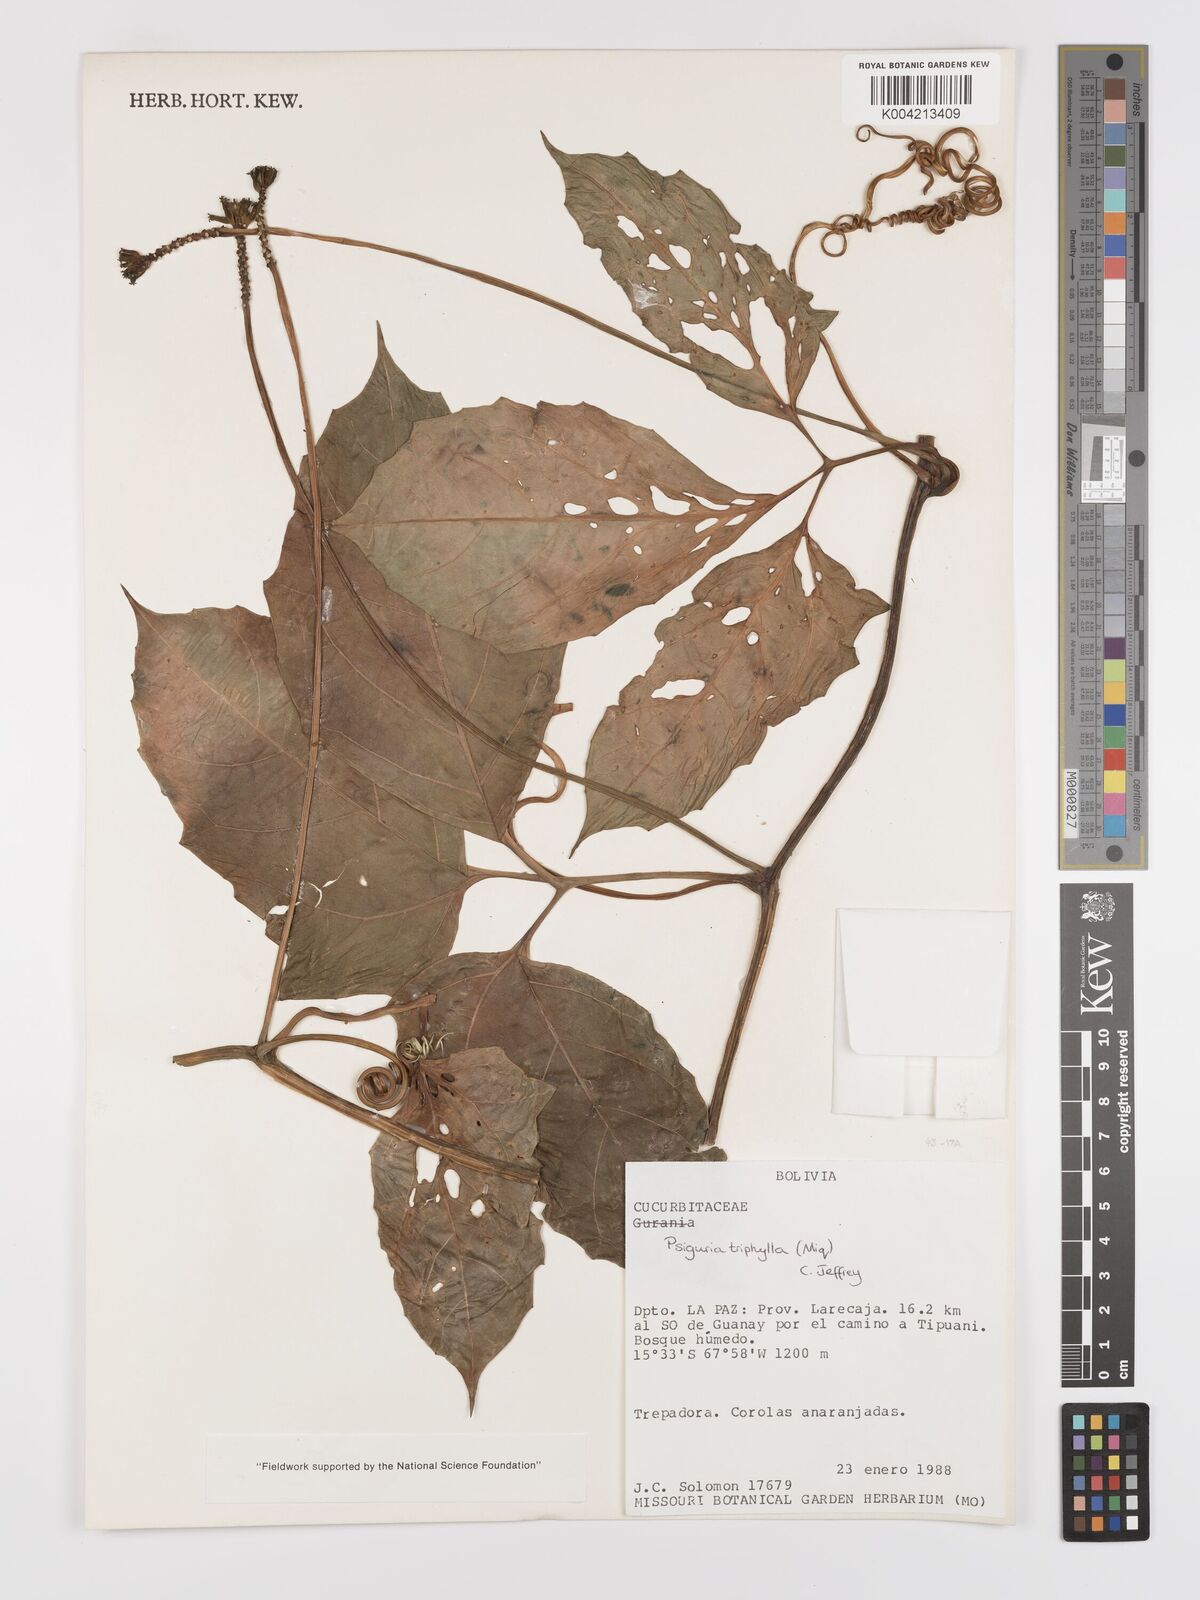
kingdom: Plantae
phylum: Tracheophyta
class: Magnoliopsida
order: Cucurbitales
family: Cucurbitaceae
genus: Psiguria
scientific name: Psiguria triphylla
